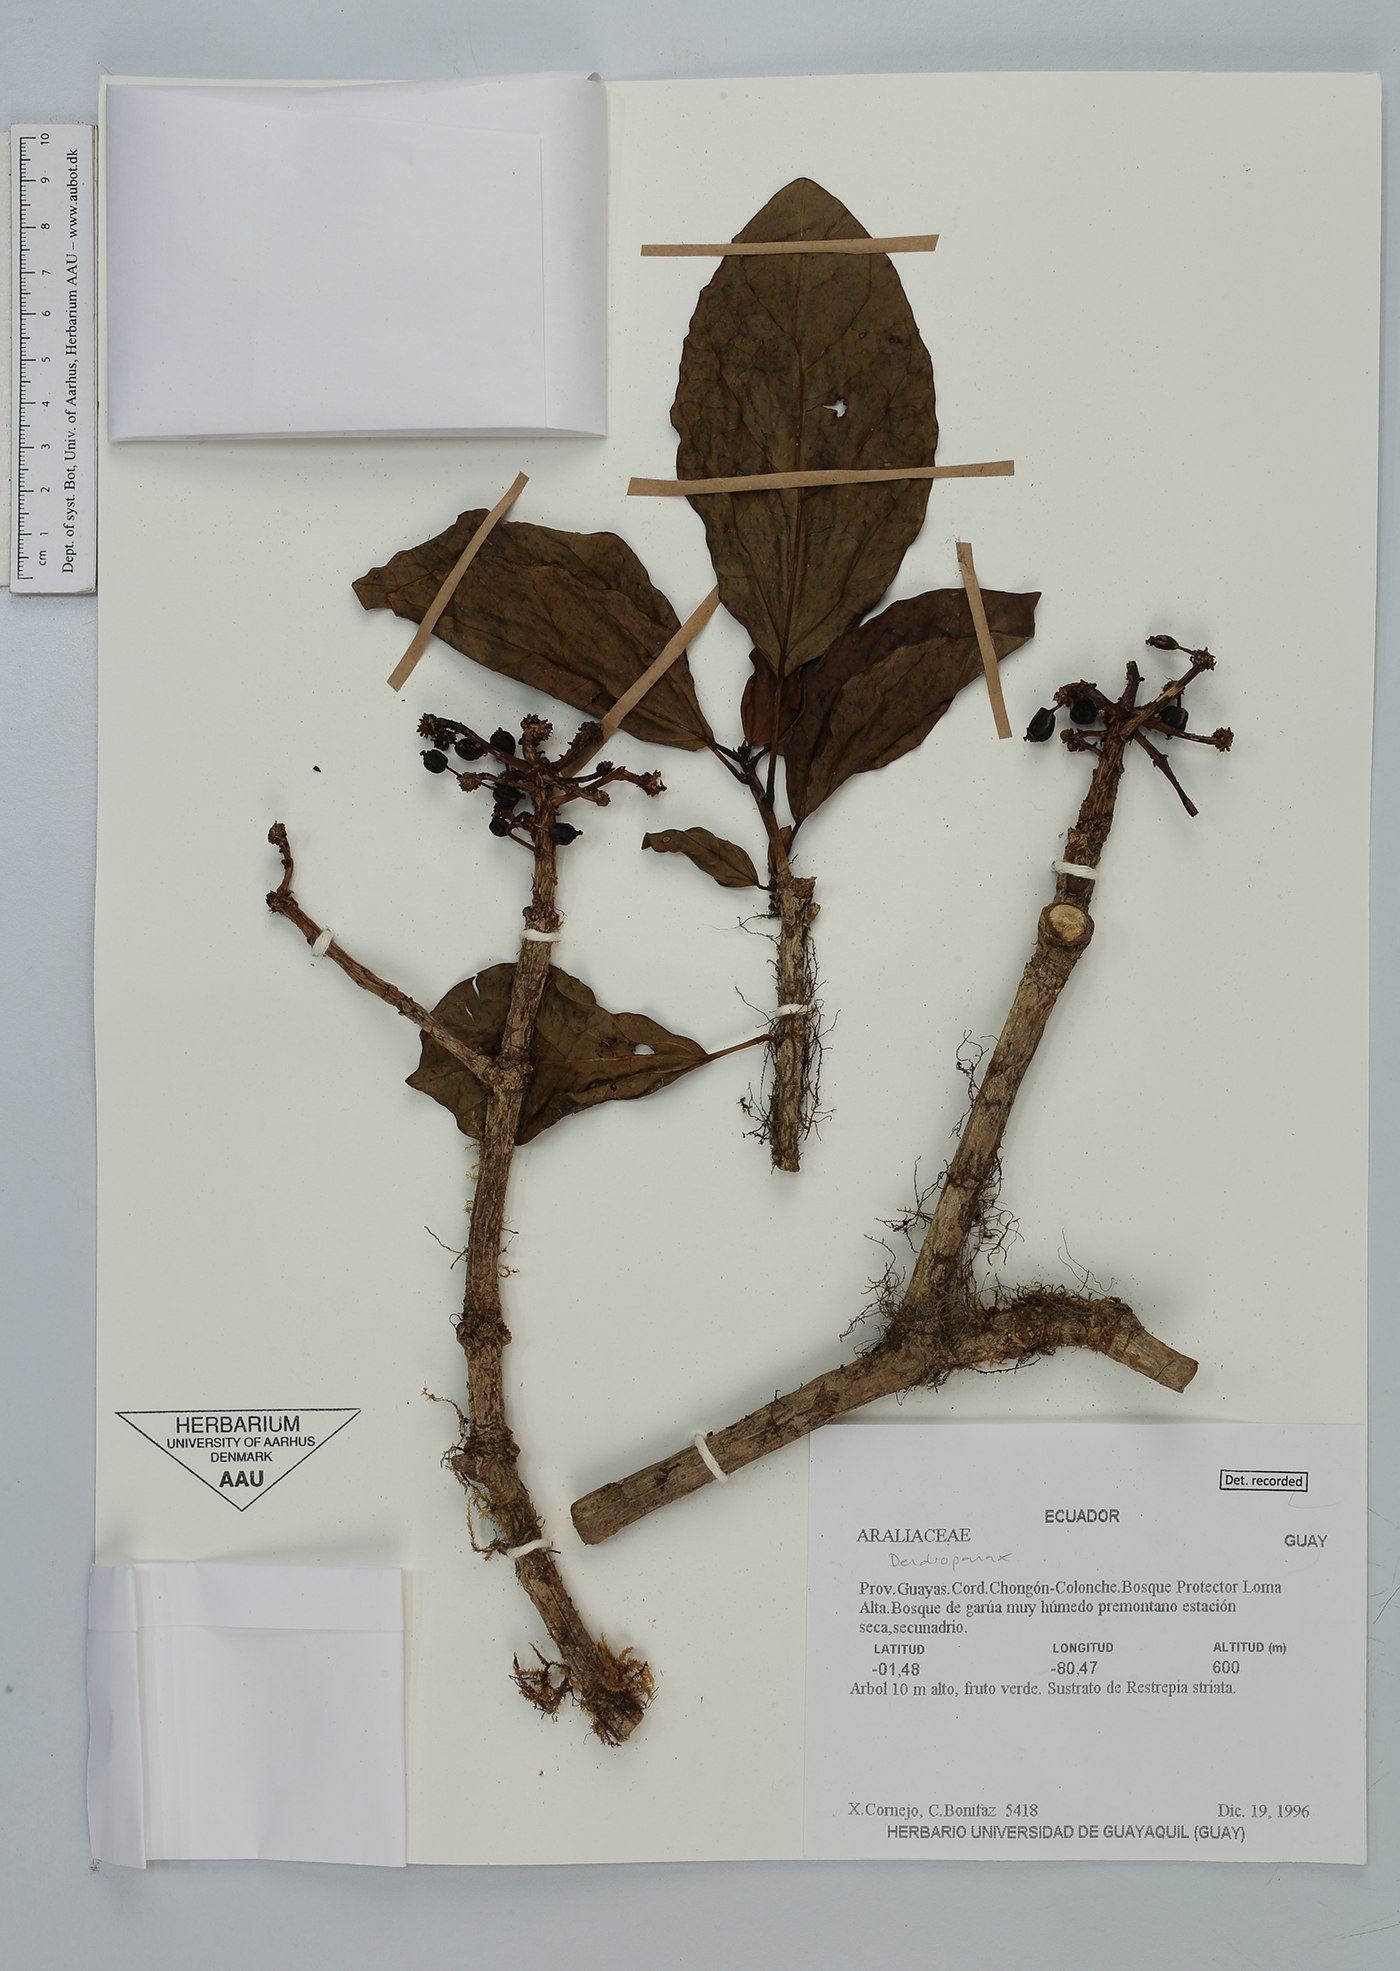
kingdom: Plantae
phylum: Tracheophyta
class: Magnoliopsida
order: Apiales
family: Araliaceae
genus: Dendropanax
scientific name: Dendropanax
